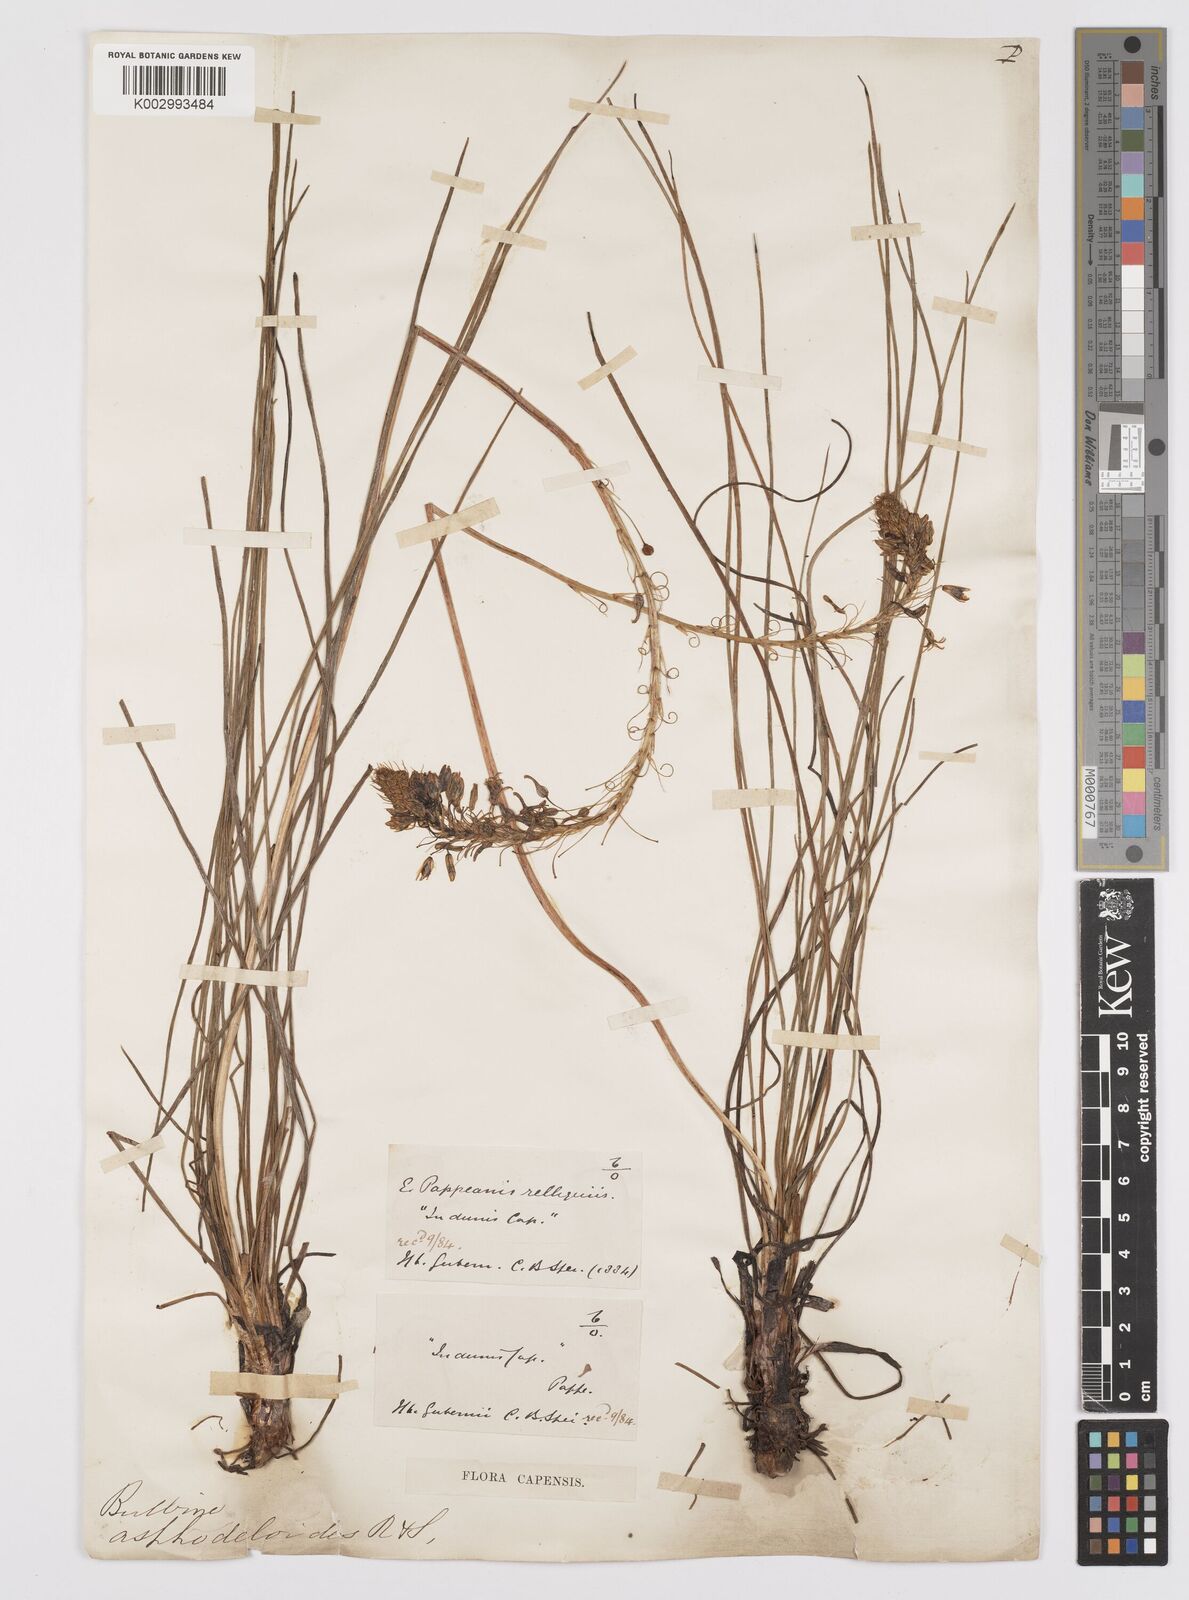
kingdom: Plantae
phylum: Tracheophyta
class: Liliopsida
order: Asparagales
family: Asphodelaceae
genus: Bulbine
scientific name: Bulbine lagopus
